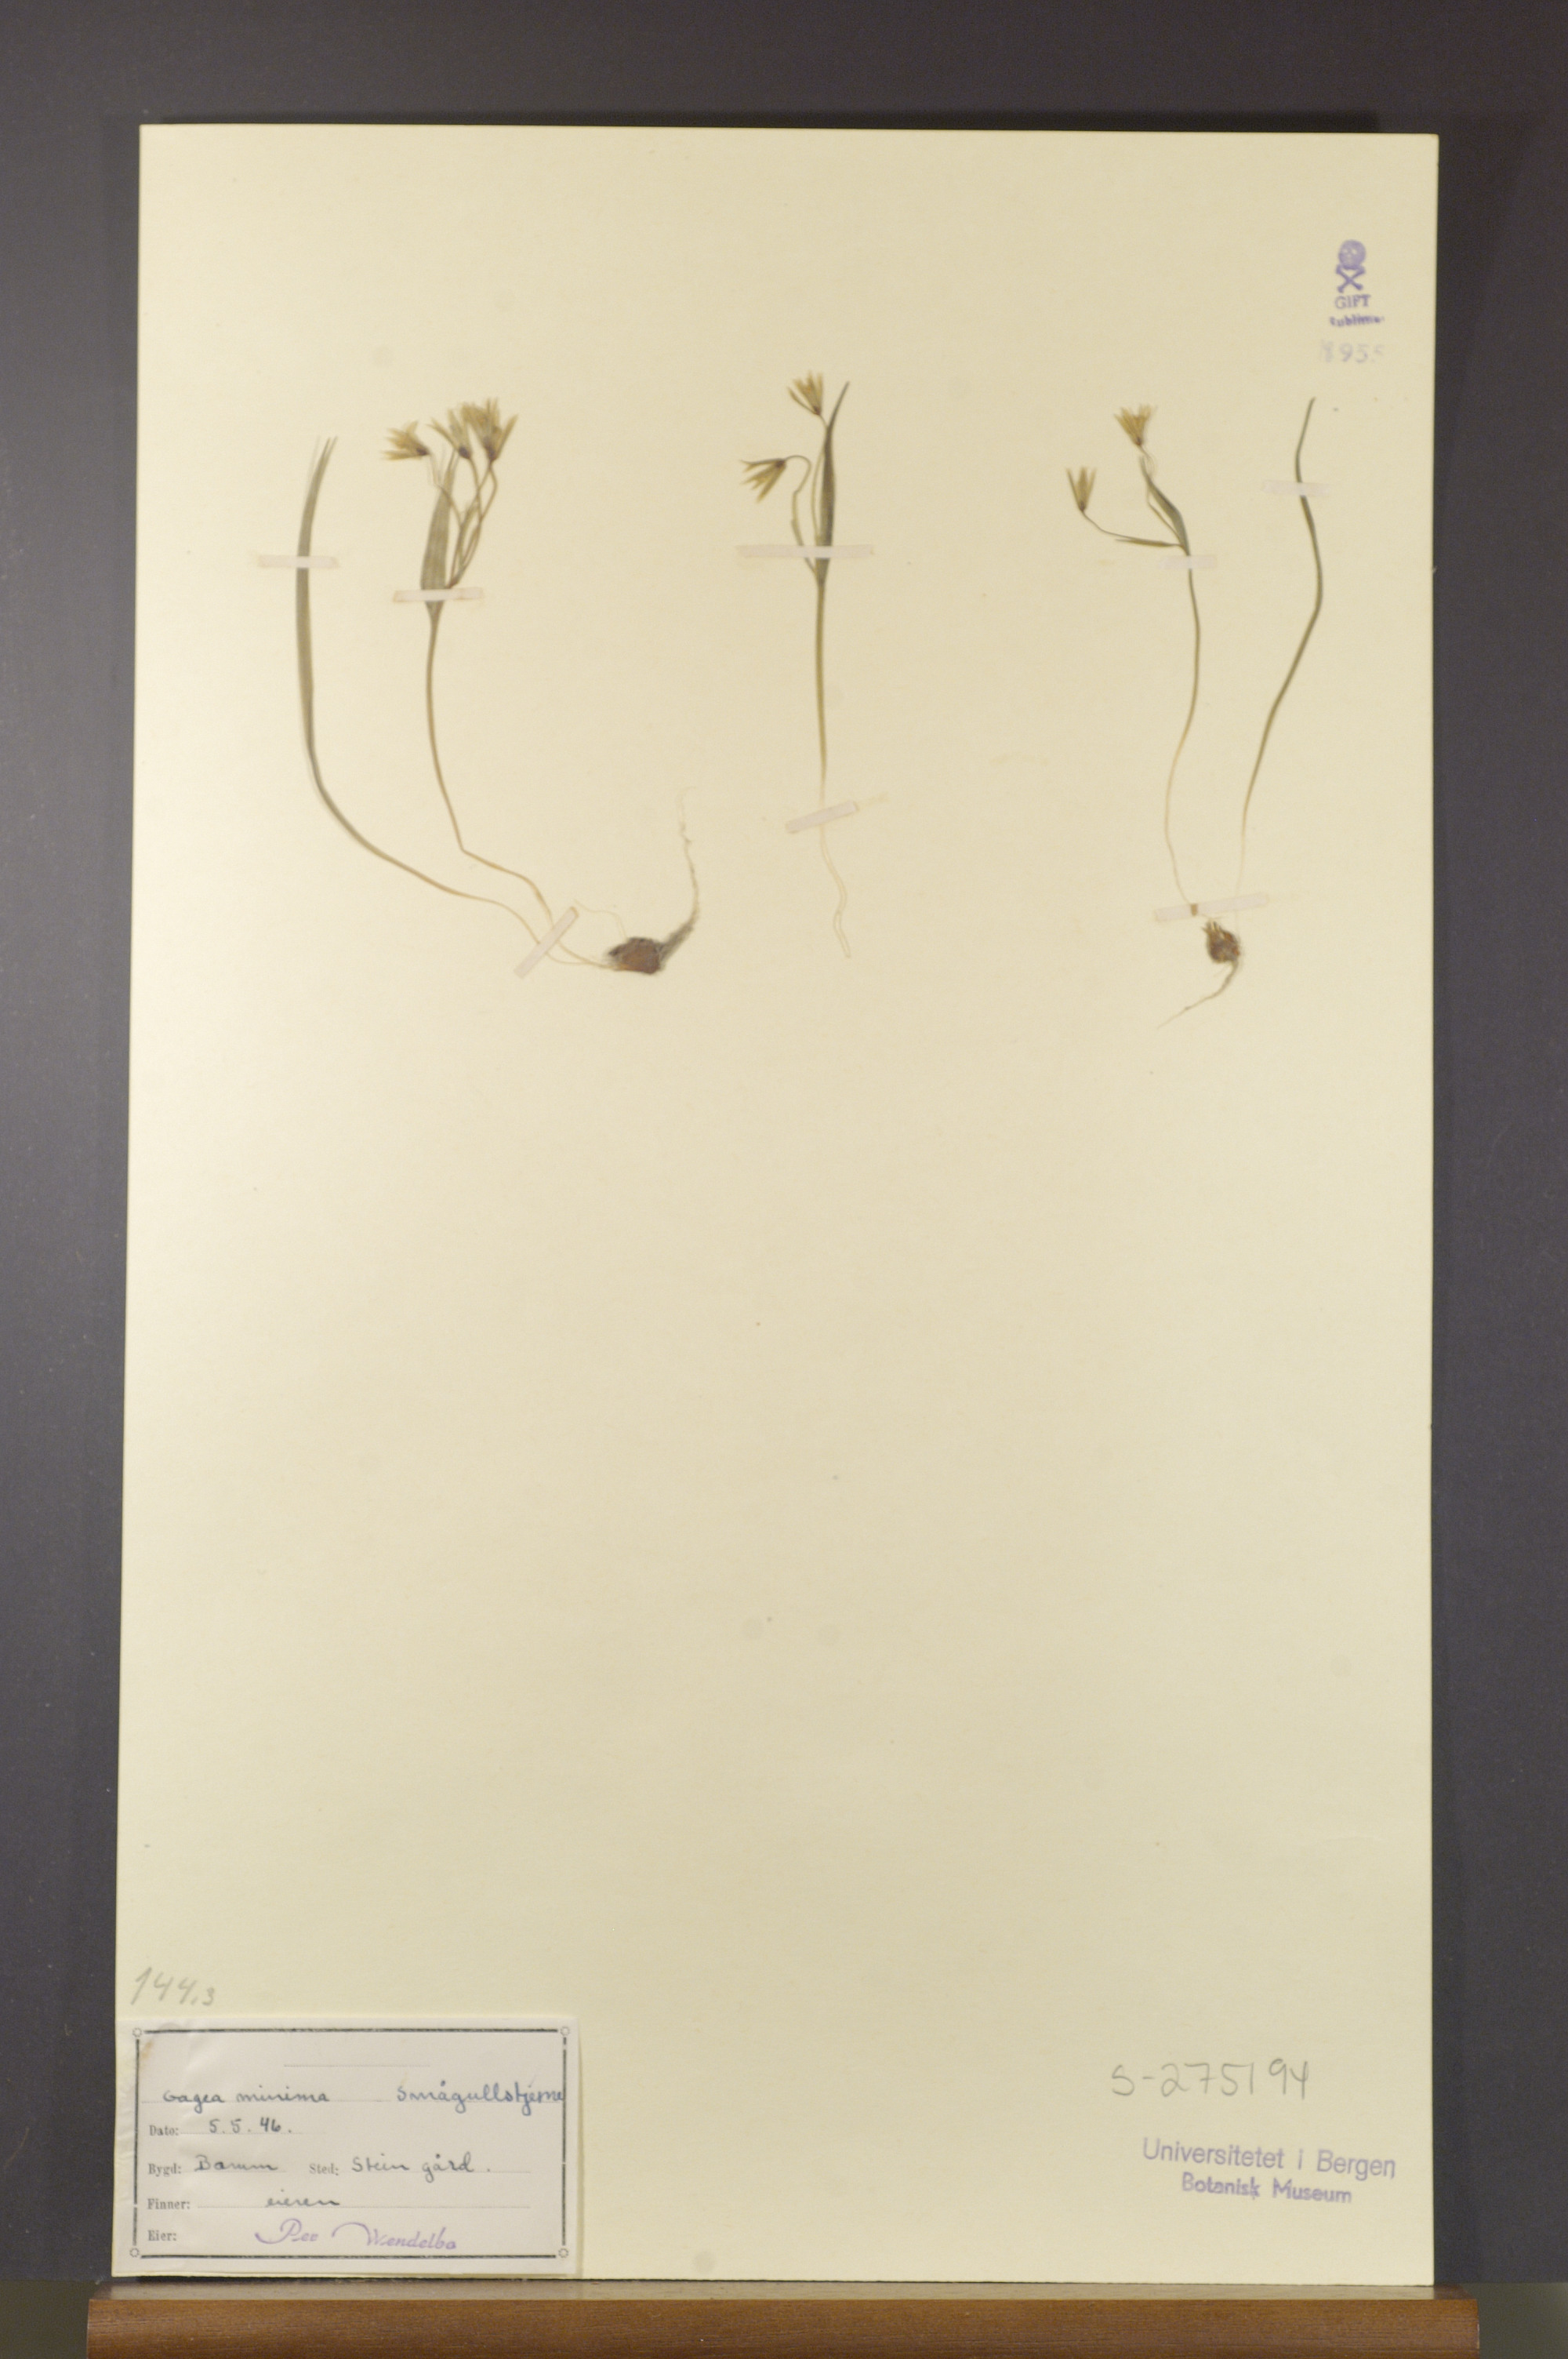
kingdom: Plantae
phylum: Tracheophyta
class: Liliopsida
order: Liliales
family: Liliaceae
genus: Gagea
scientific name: Gagea minima
